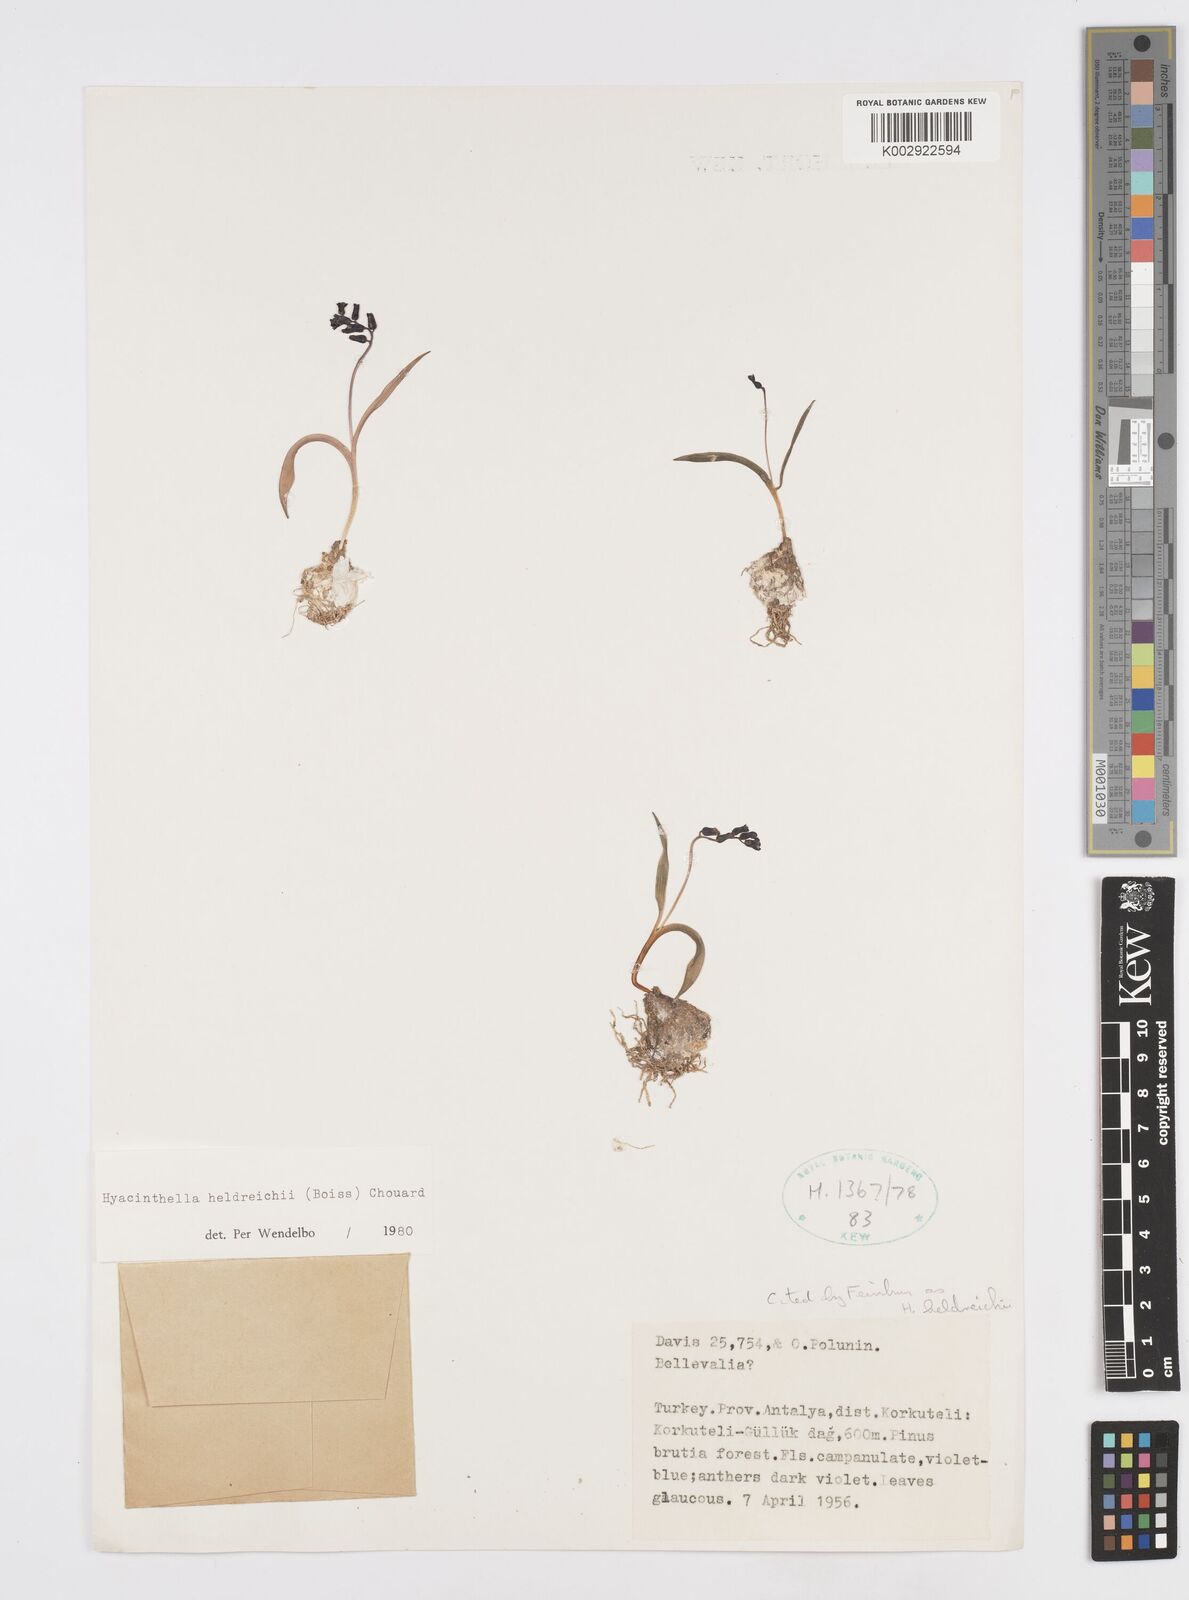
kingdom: Plantae
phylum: Tracheophyta
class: Liliopsida
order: Asparagales
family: Asparagaceae
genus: Hyacinthella
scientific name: Hyacinthella heldreichii
